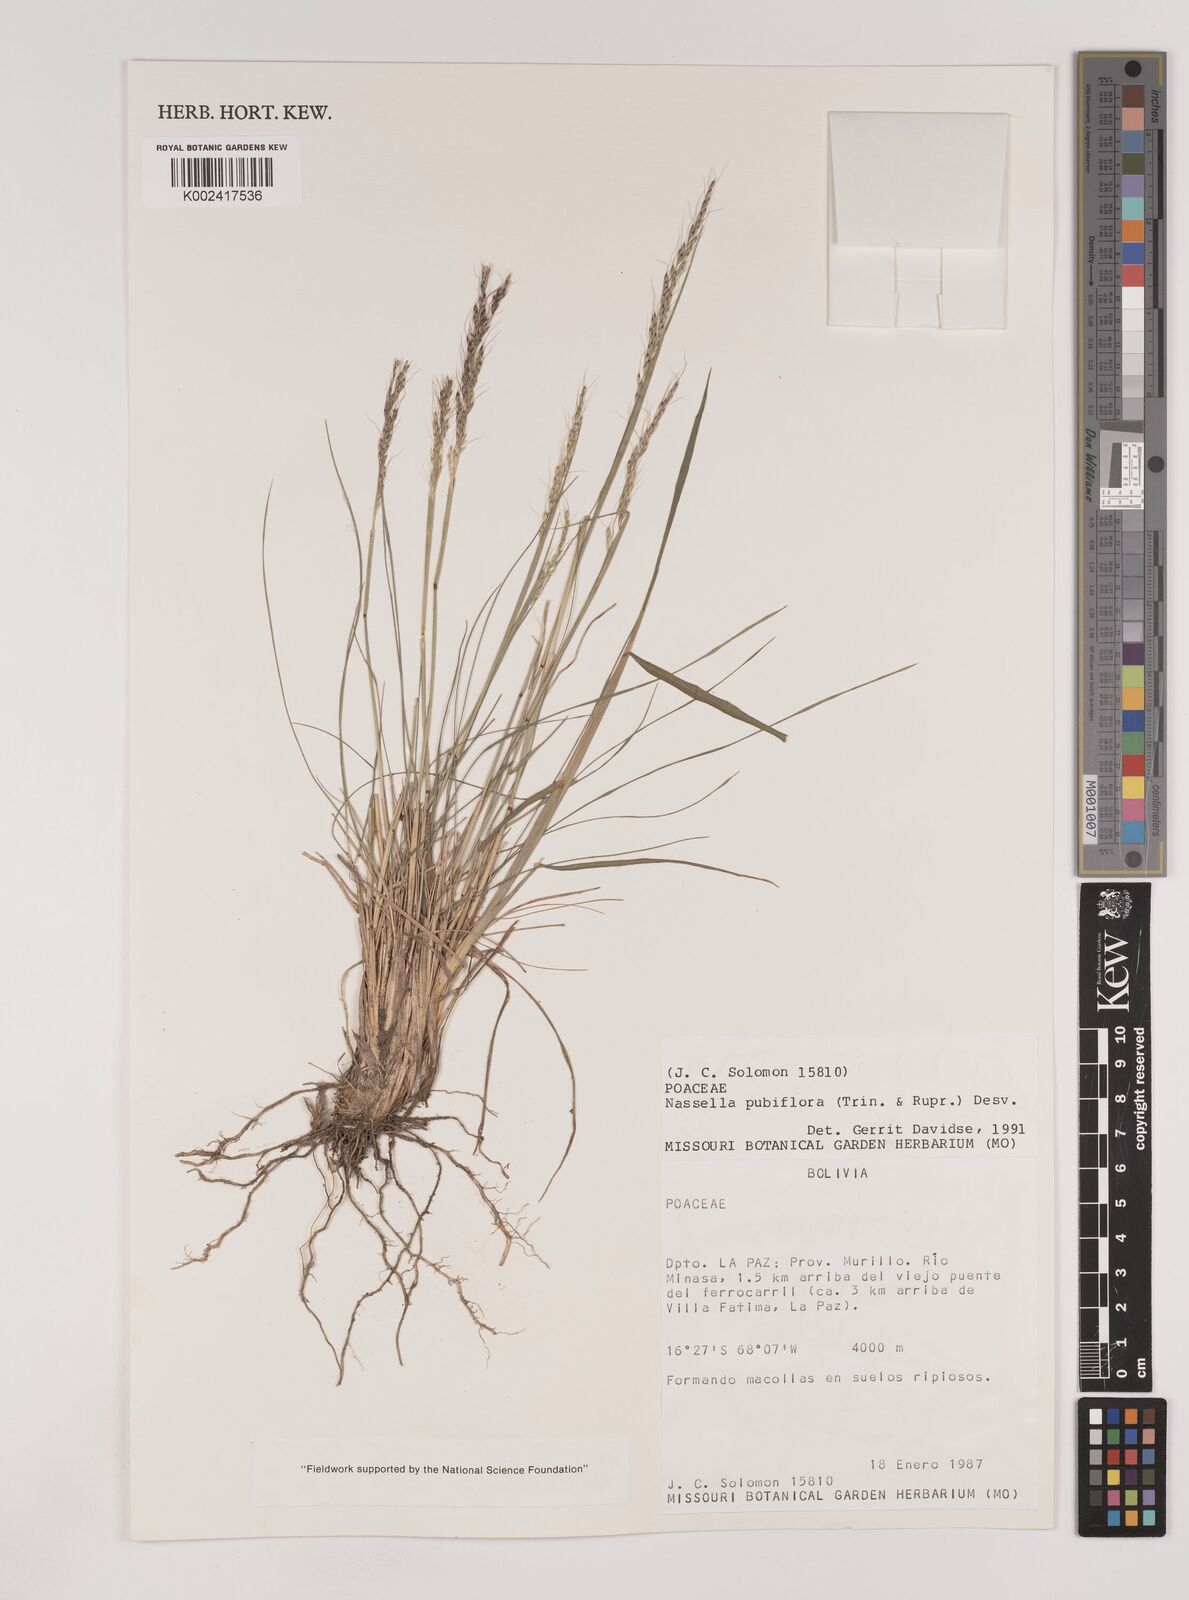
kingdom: Plantae
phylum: Tracheophyta
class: Liliopsida
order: Poales
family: Poaceae
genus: Nassella
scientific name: Nassella pubiflora
